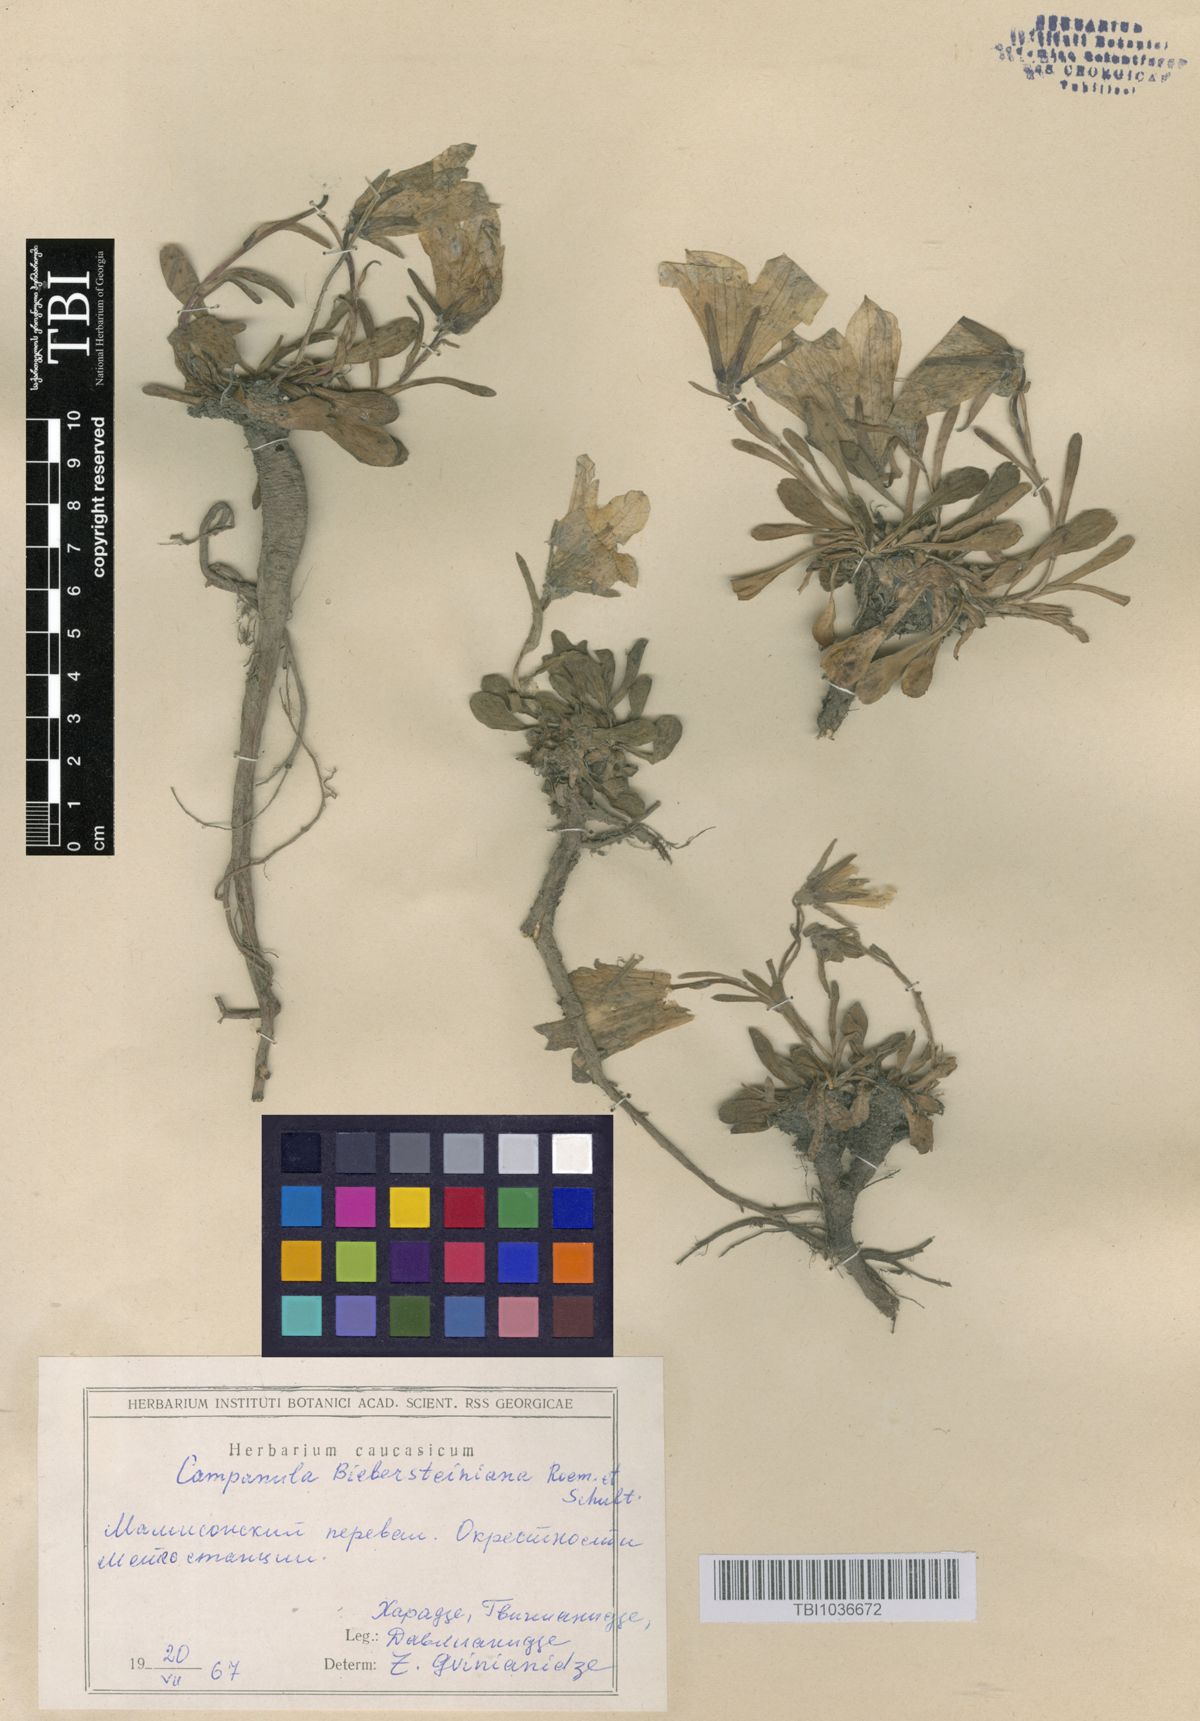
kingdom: Plantae
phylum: Tracheophyta
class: Magnoliopsida
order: Asterales
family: Campanulaceae
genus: Campanula
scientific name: Campanula tridentata
